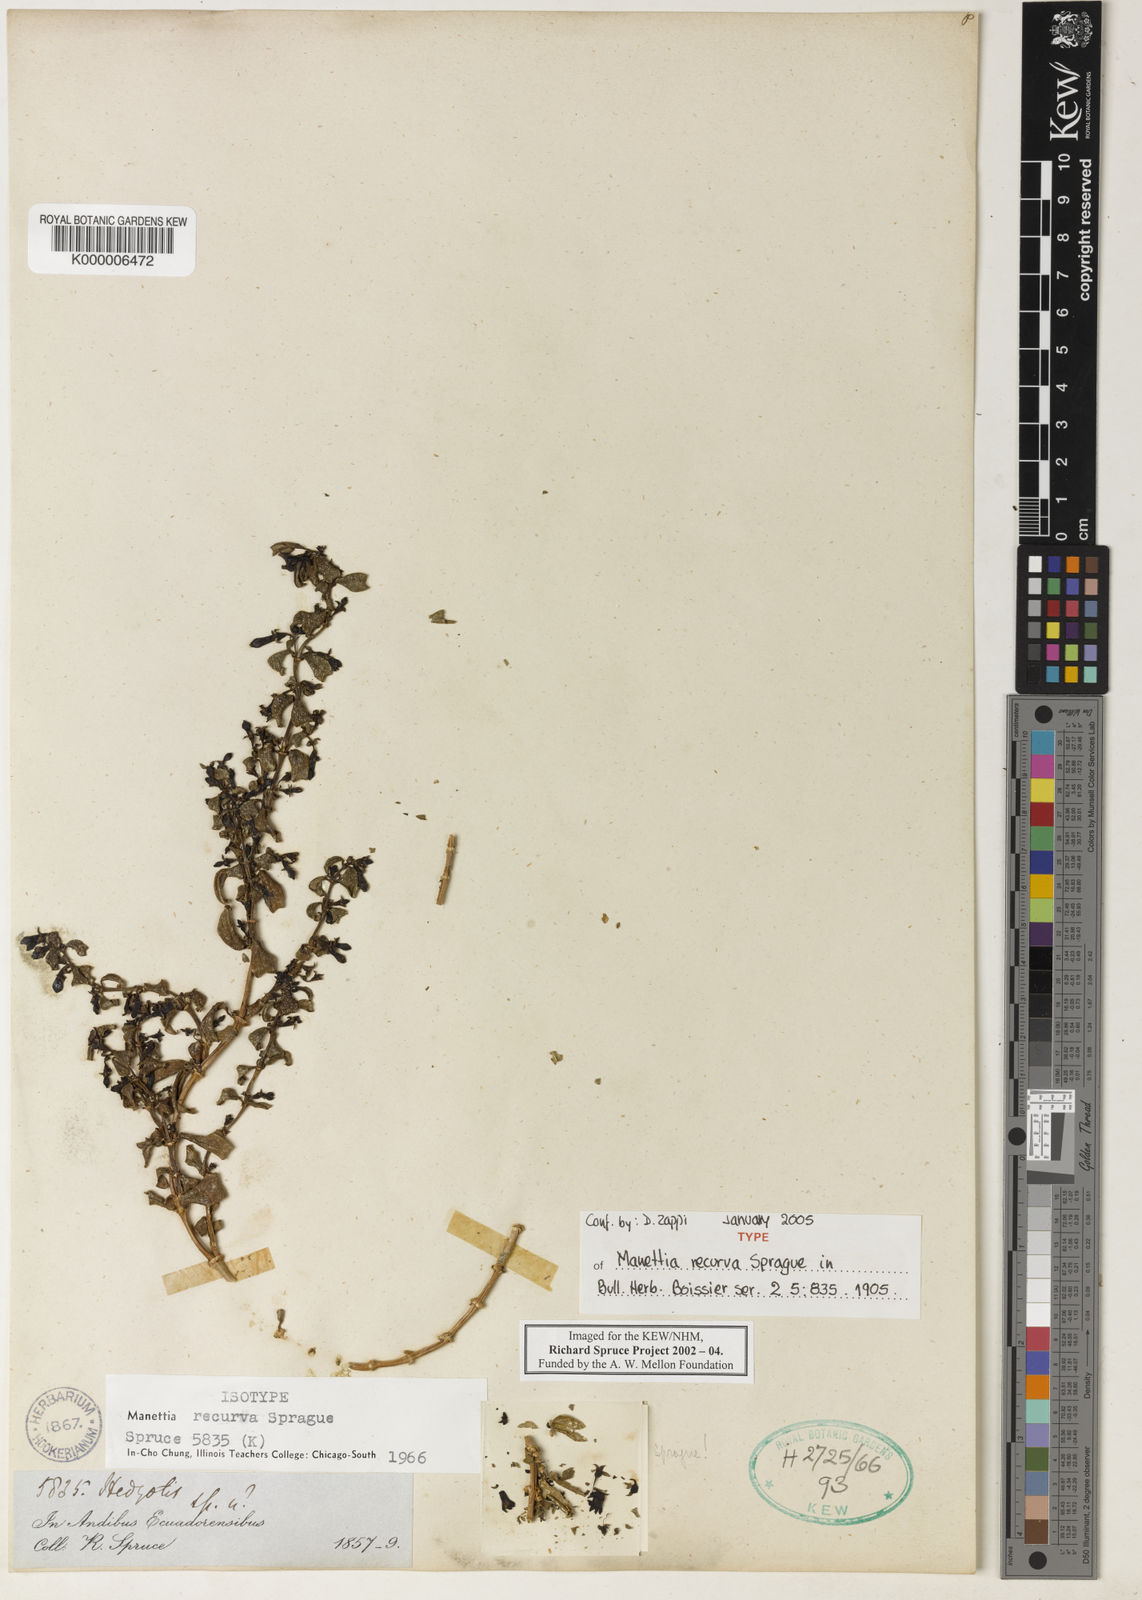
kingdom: Plantae
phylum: Tracheophyta
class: Magnoliopsida
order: Gentianales
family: Rubiaceae
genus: Manettia
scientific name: Manettia recurva
